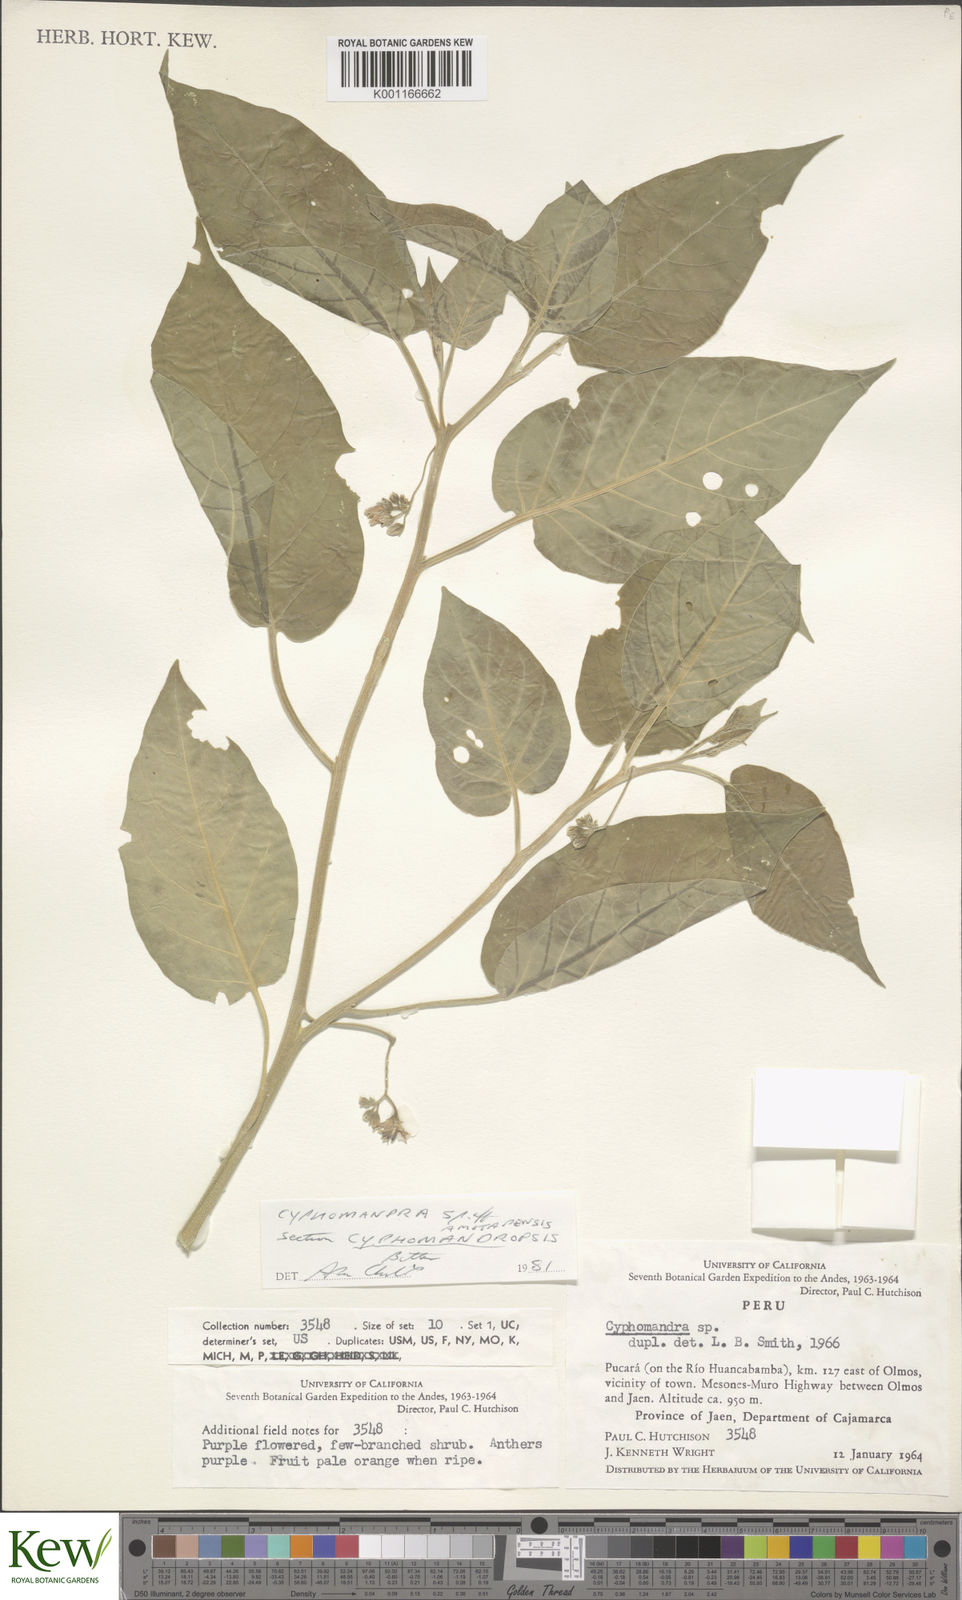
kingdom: Plantae
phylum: Tracheophyta
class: Magnoliopsida
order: Solanales
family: Solanaceae
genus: Solanum
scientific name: Solanum
